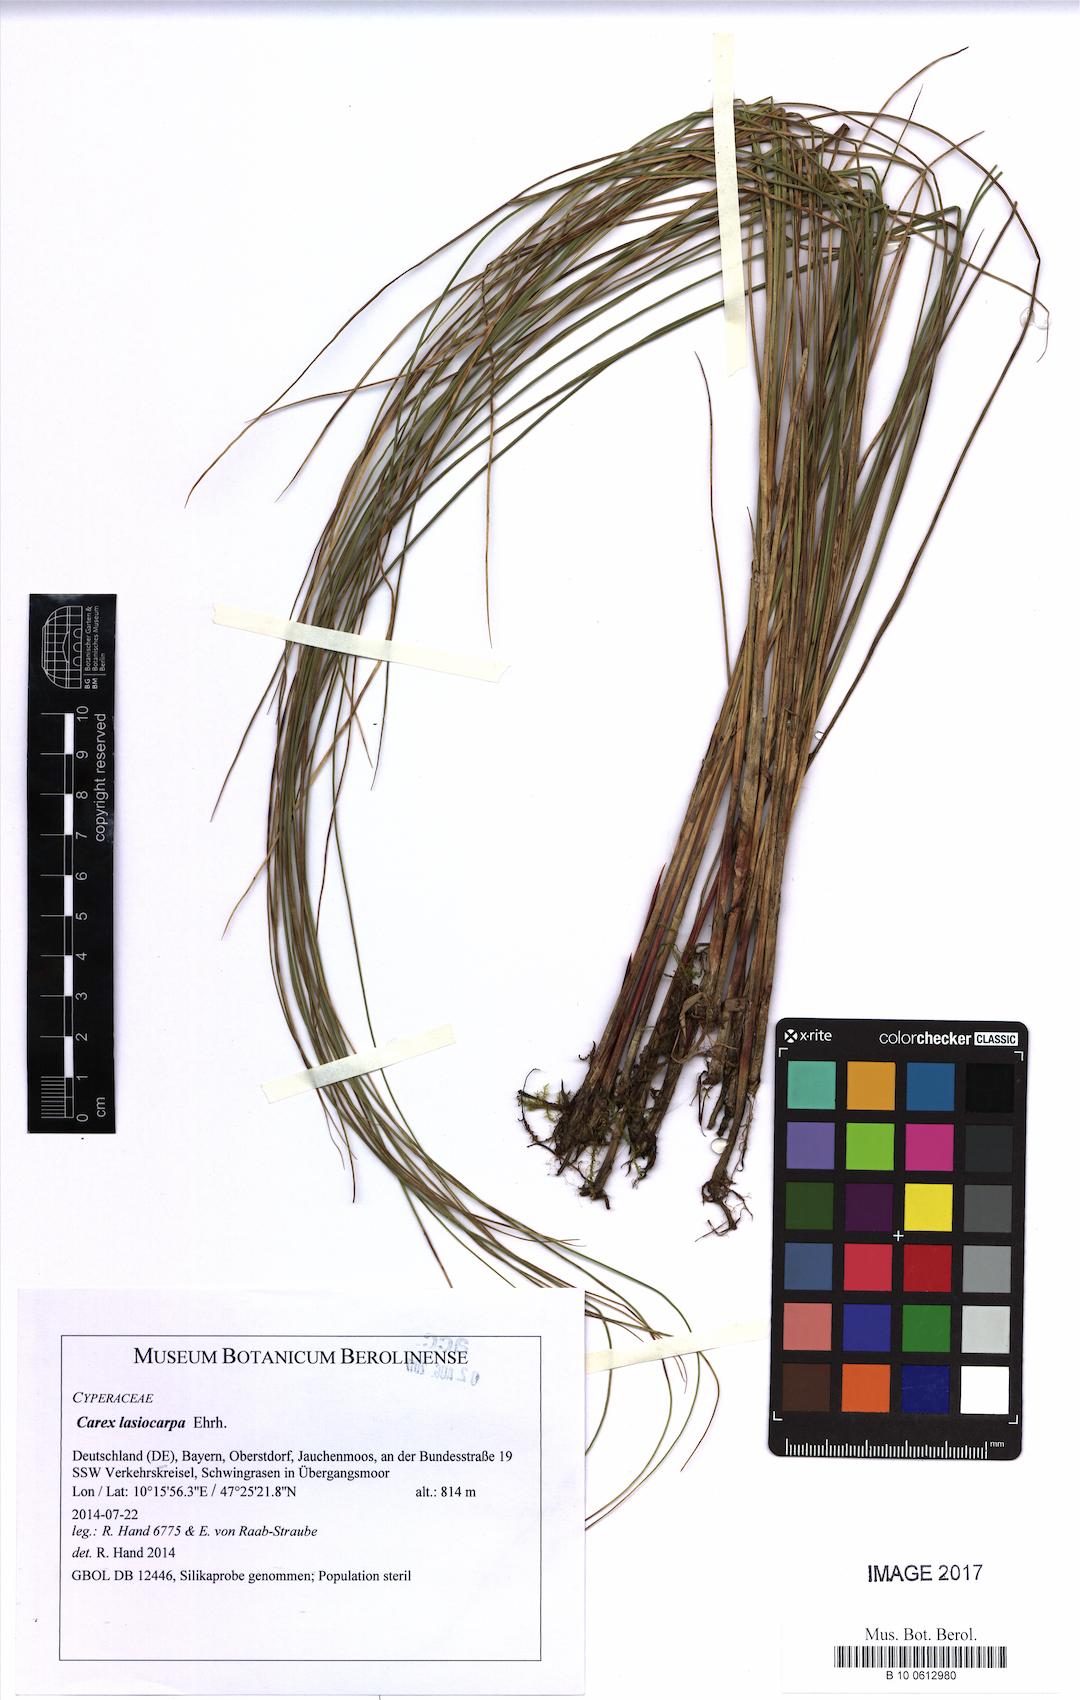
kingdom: Plantae
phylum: Tracheophyta
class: Liliopsida
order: Poales
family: Cyperaceae
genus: Carex
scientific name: Carex lasiocarpa
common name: Slender sedge
